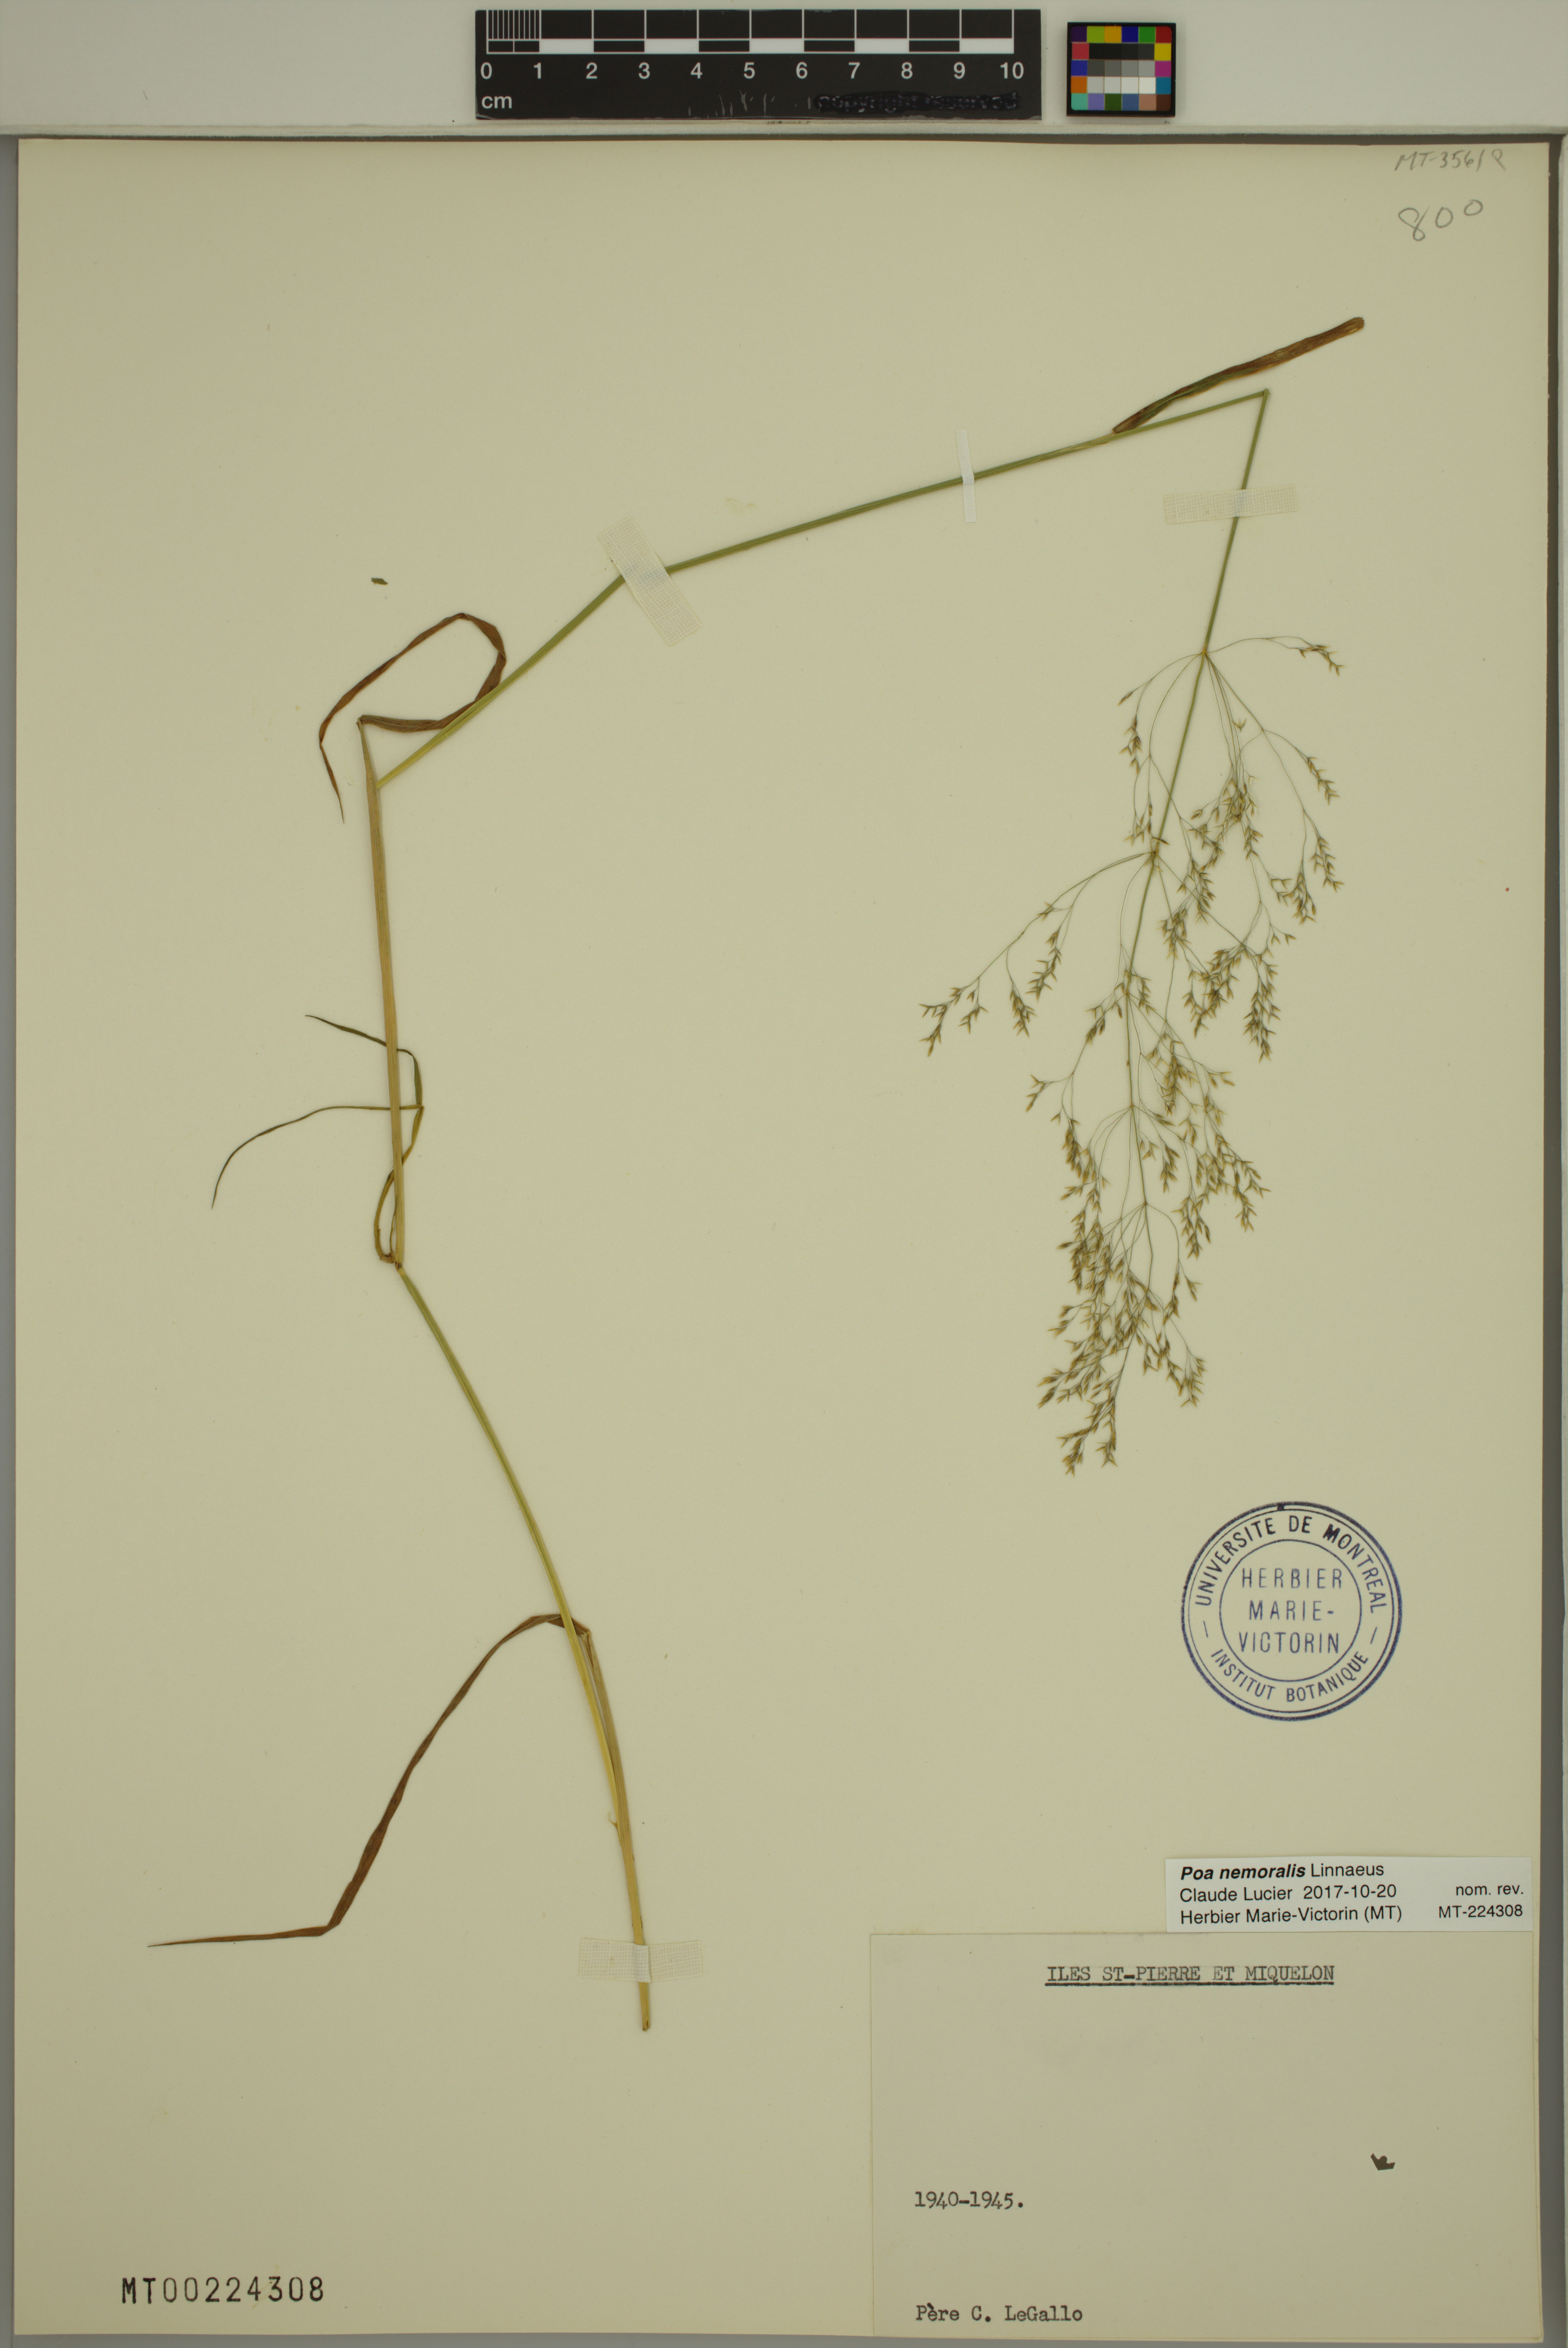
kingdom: Plantae
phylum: Tracheophyta
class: Liliopsida
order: Poales
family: Poaceae
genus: Poa
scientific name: Poa nemoralis
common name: Wood bluegrass
